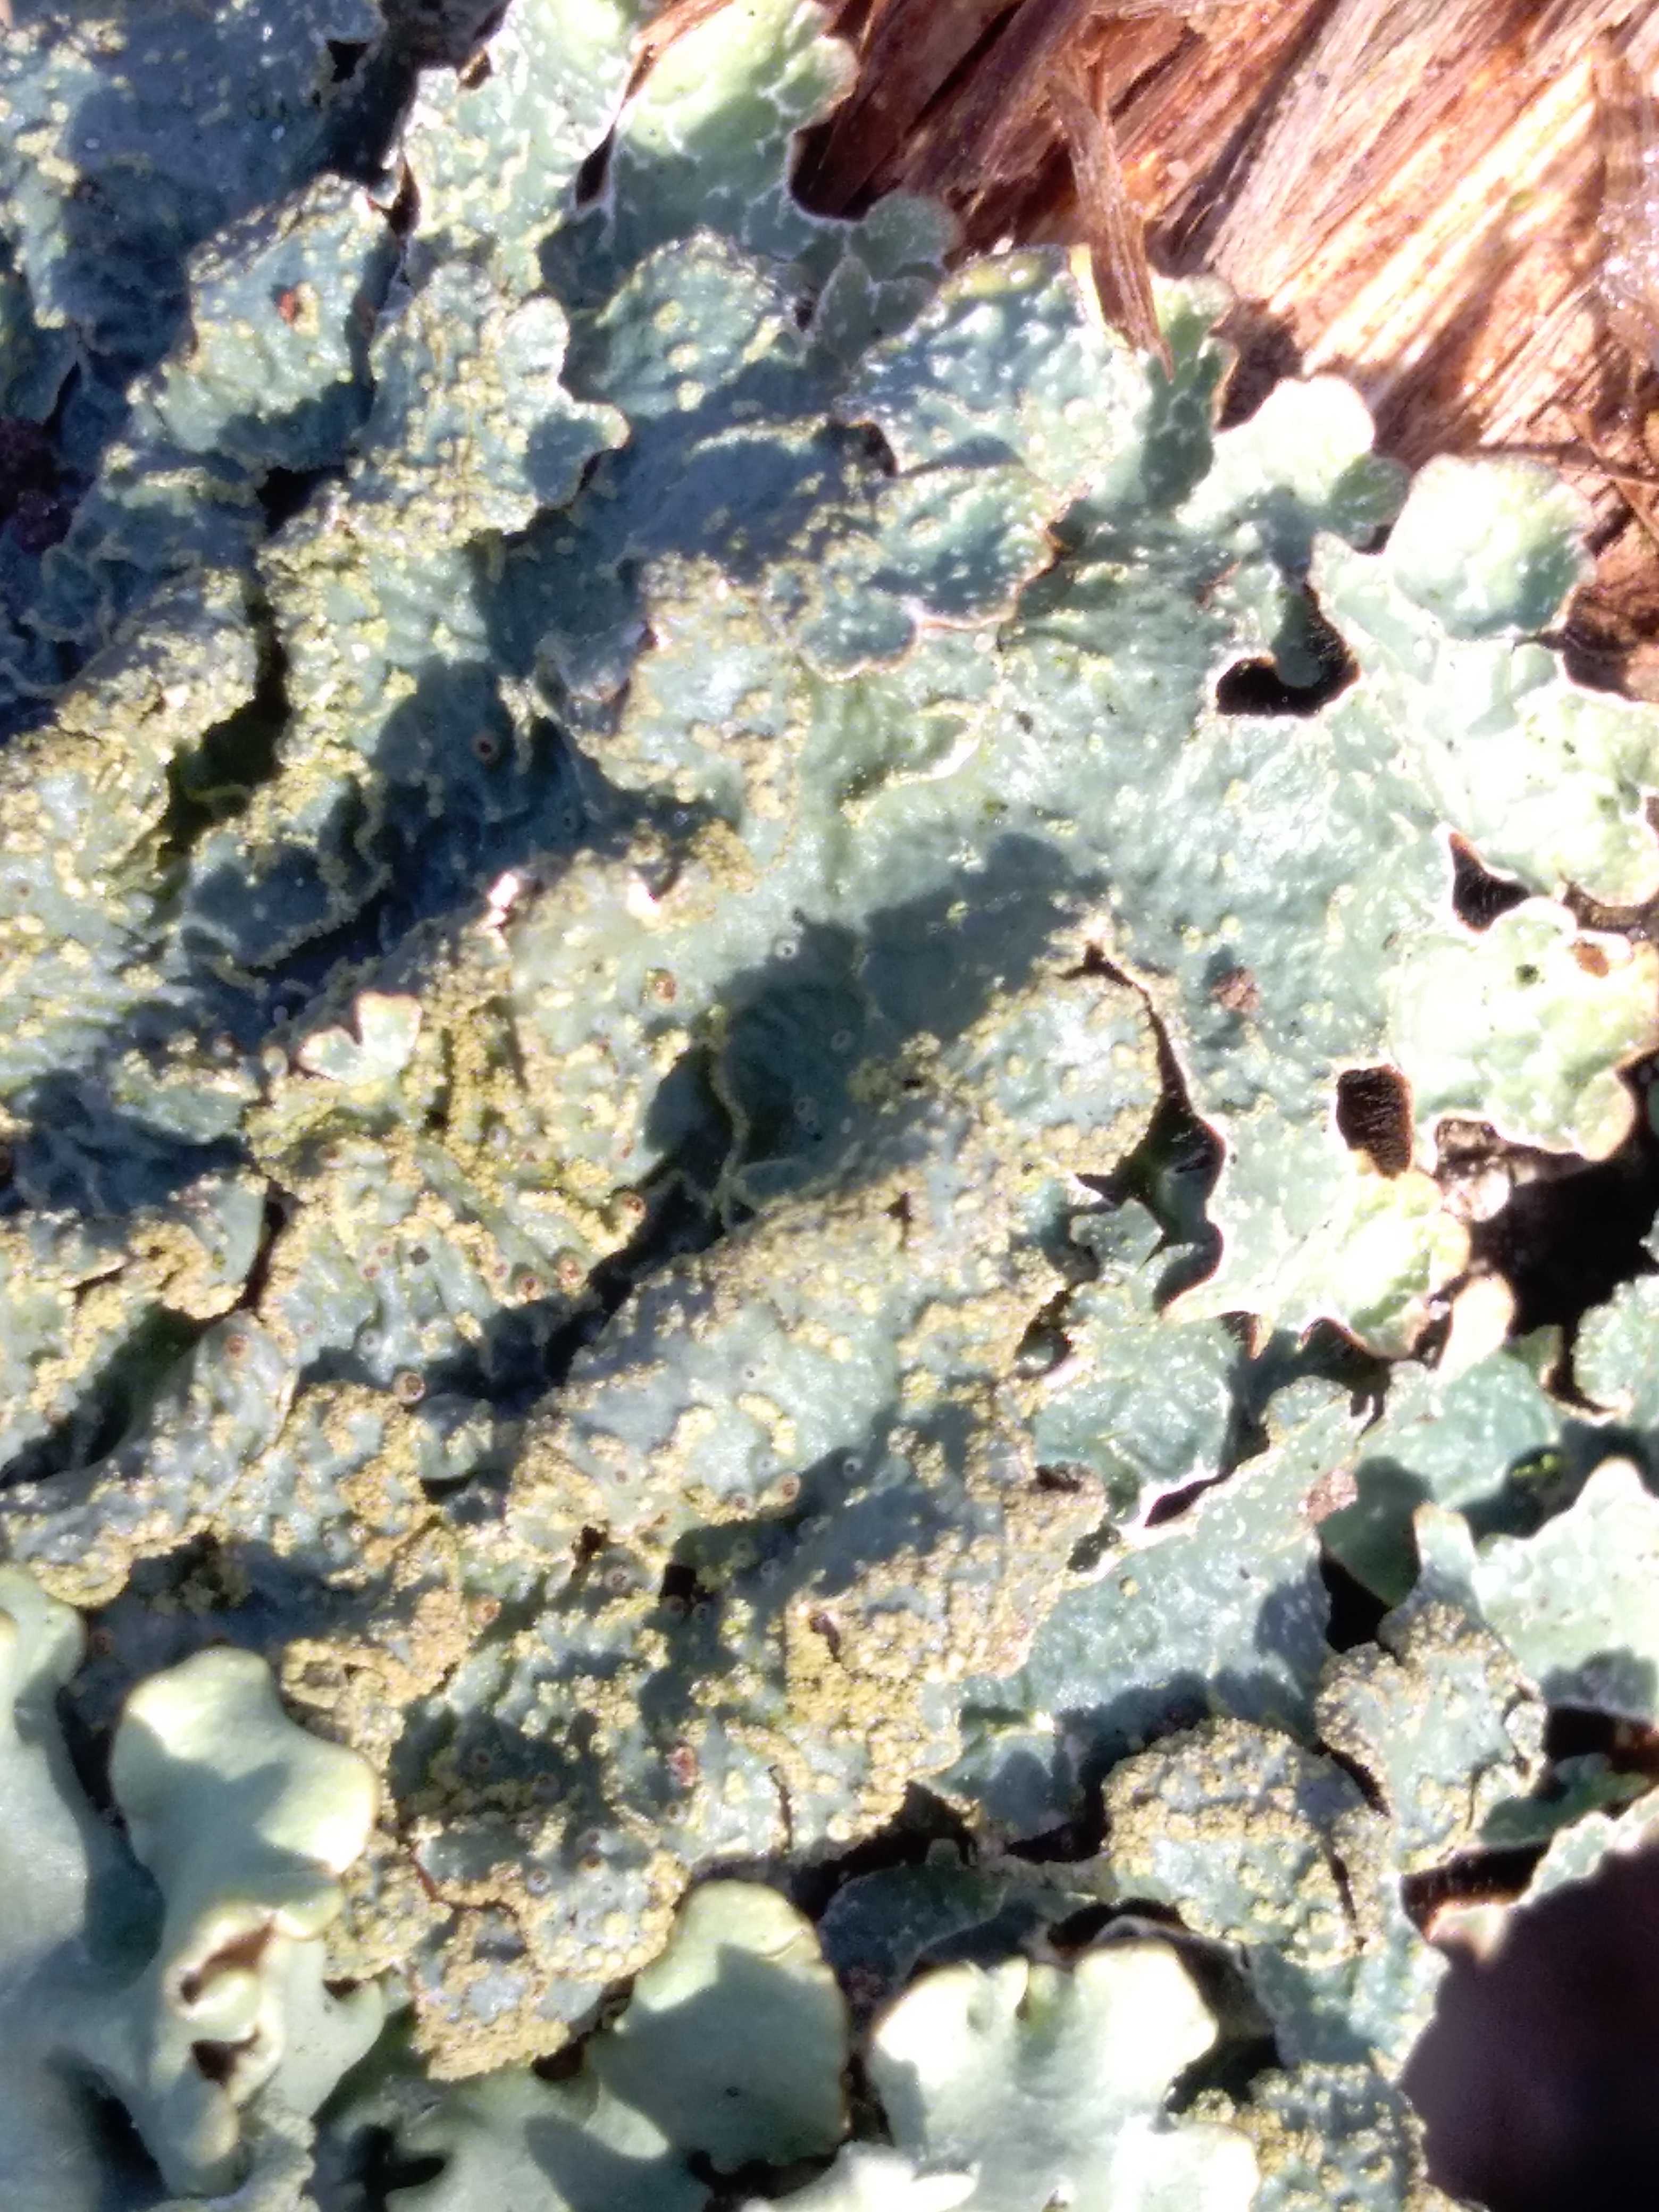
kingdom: Fungi
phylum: Ascomycota
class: Lecanoromycetes
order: Lecanorales
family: Parmeliaceae
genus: Parmelia
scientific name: Parmelia sulcata
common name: rynket skållav
